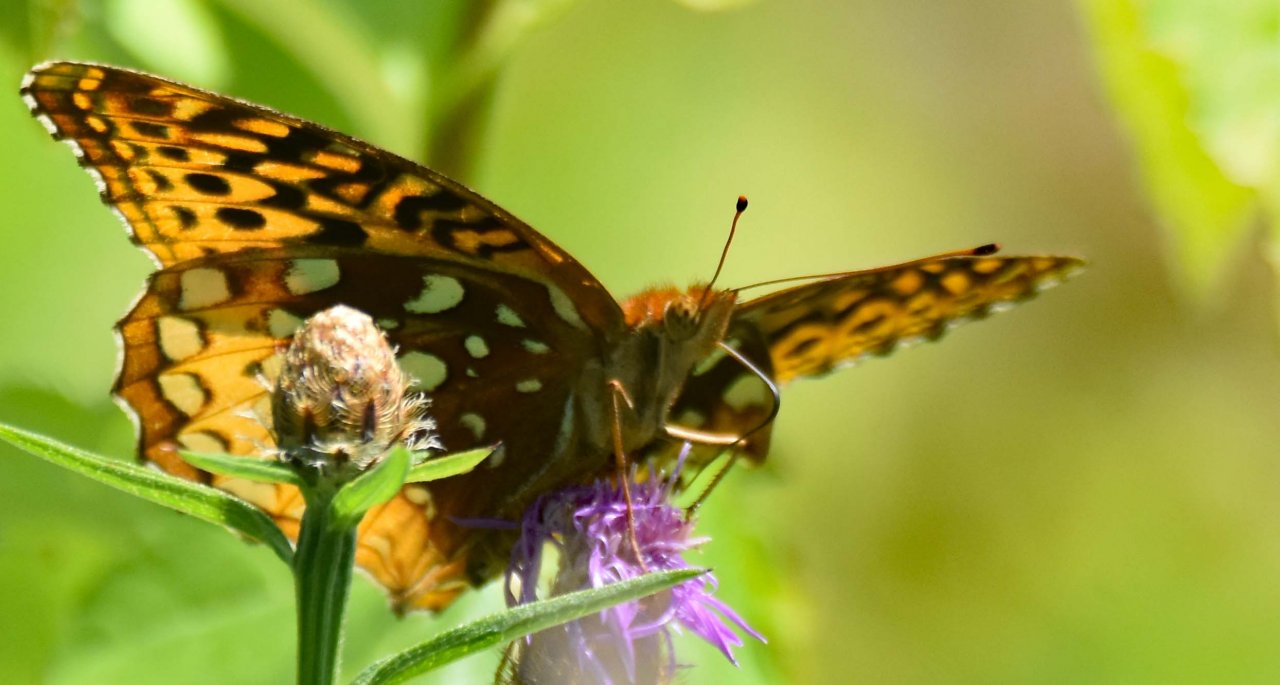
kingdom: Animalia
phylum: Arthropoda
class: Insecta
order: Lepidoptera
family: Nymphalidae
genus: Speyeria
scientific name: Speyeria cybele
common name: Great Spangled Fritillary
